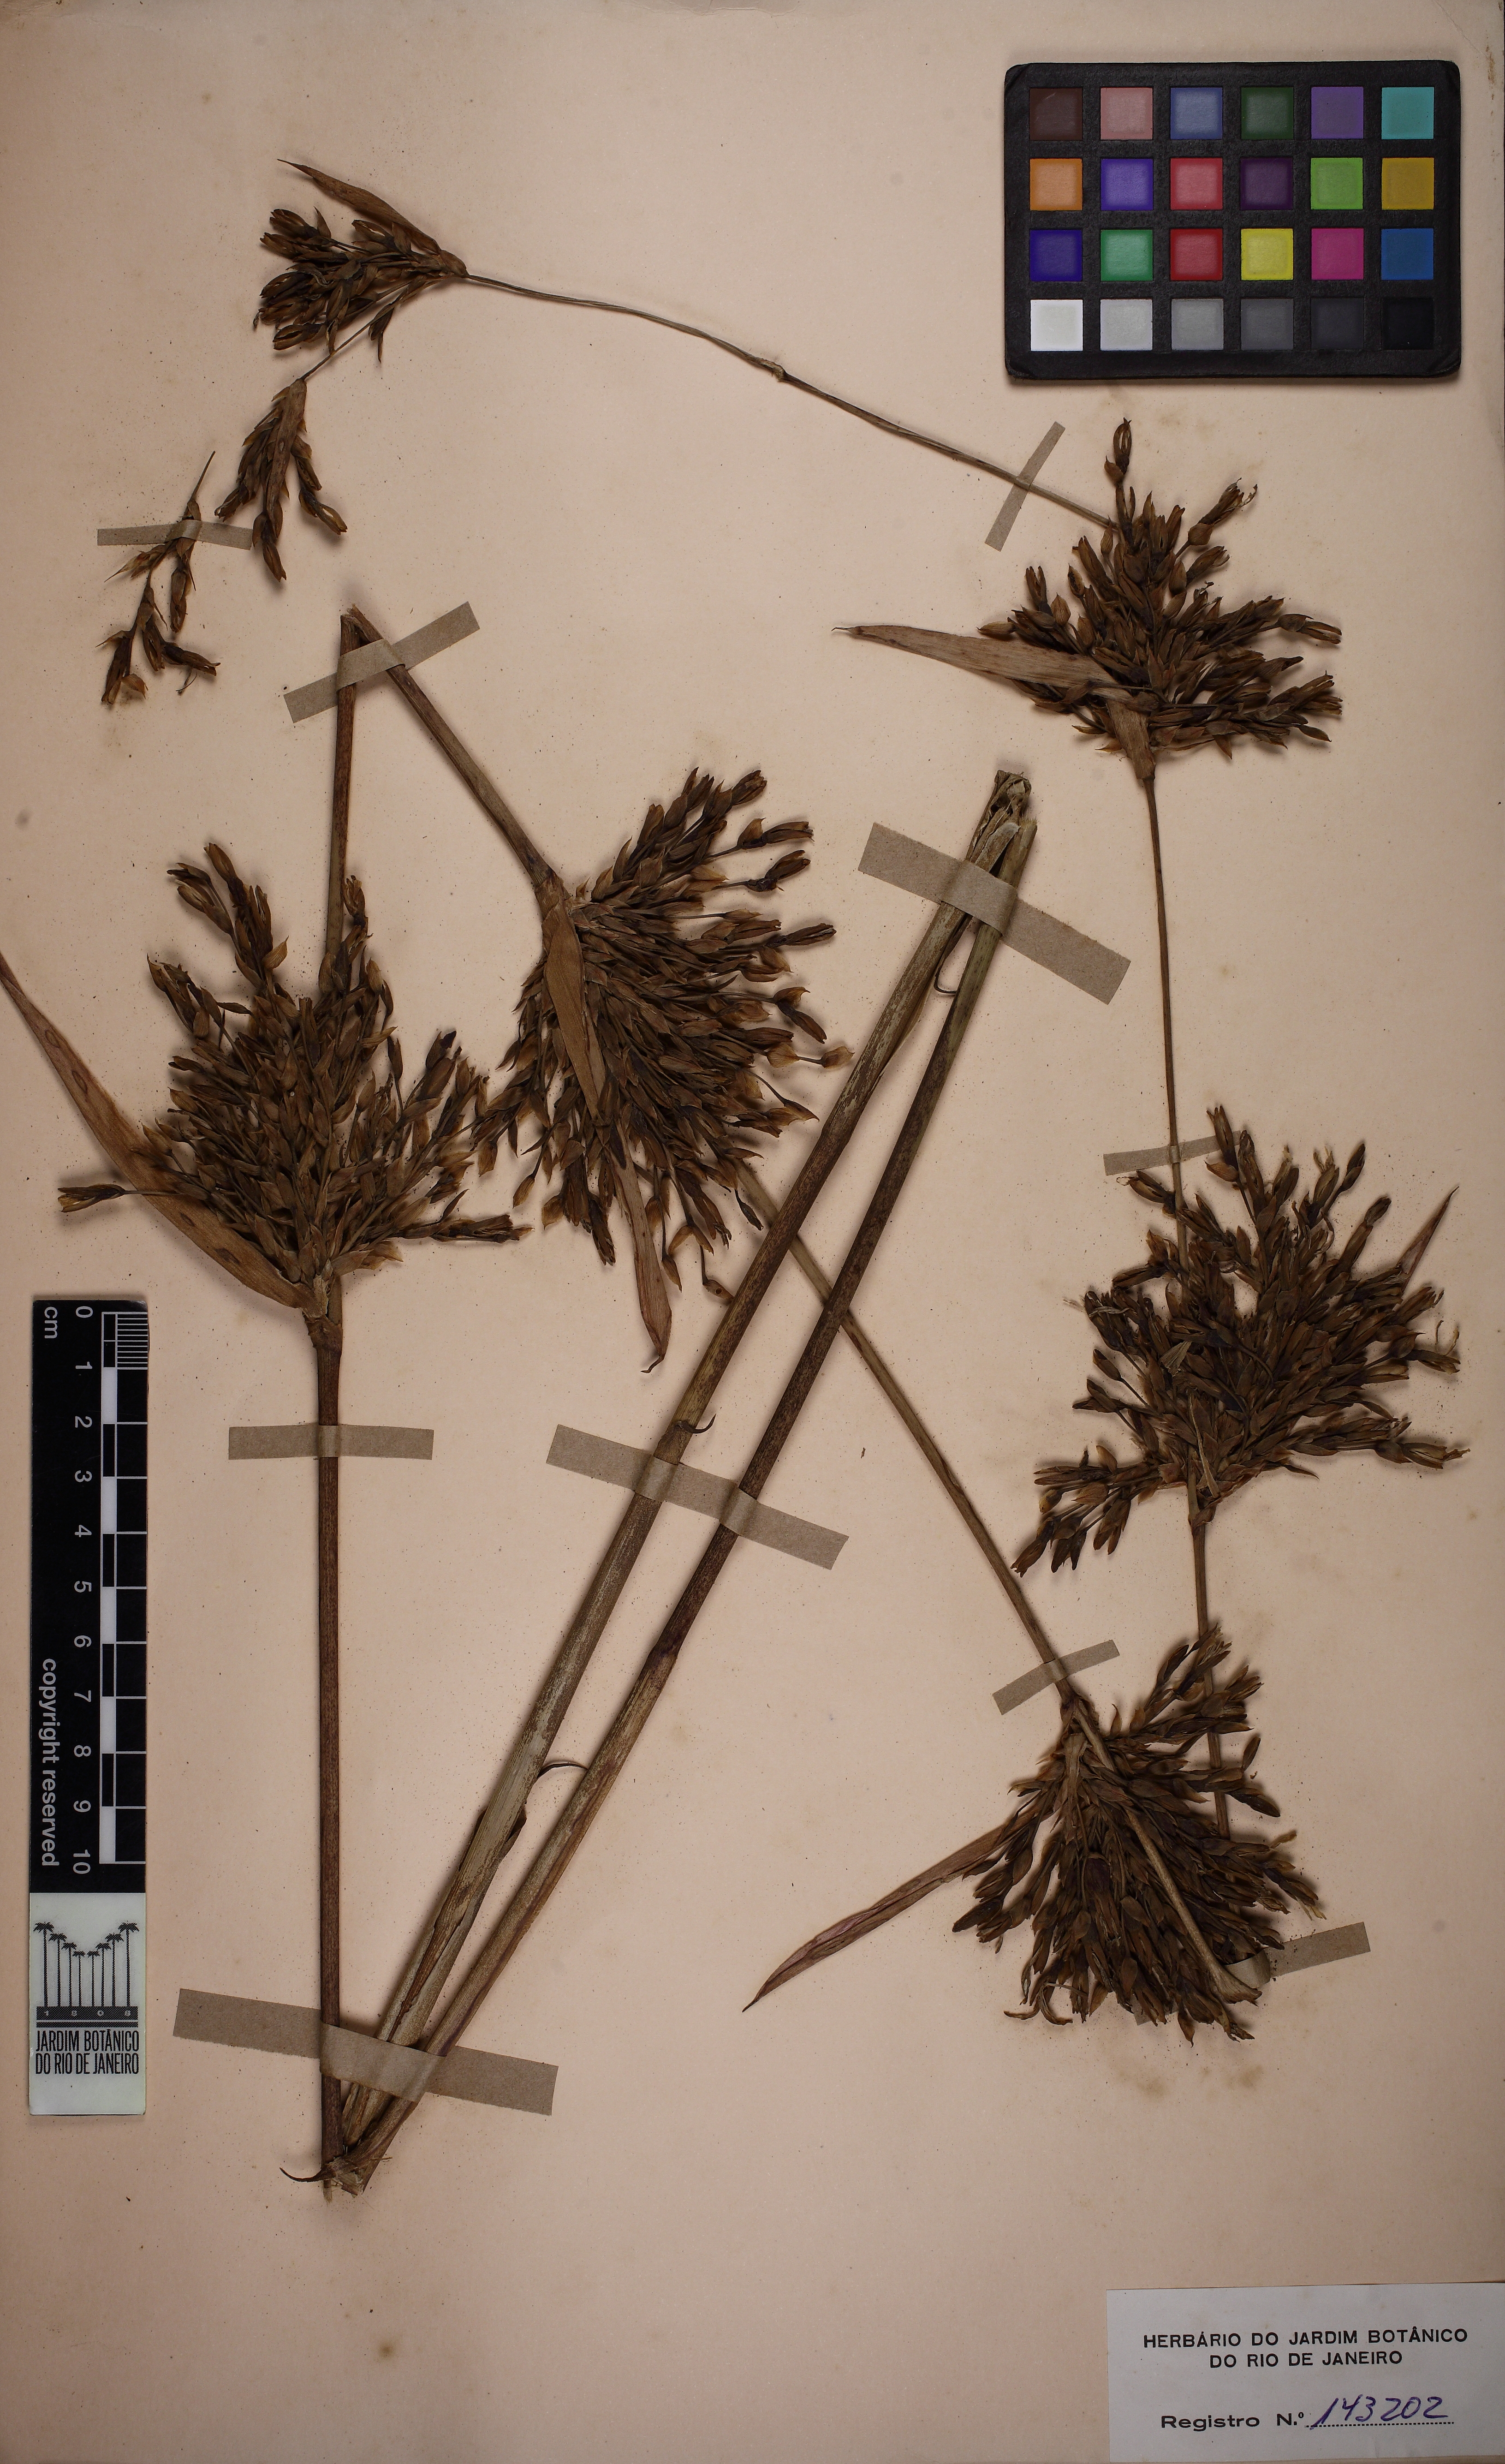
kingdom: Plantae
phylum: Tracheophyta
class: Liliopsida
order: Poales
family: Bromeliaceae
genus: Aechmea
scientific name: Aechmea bambusoides
